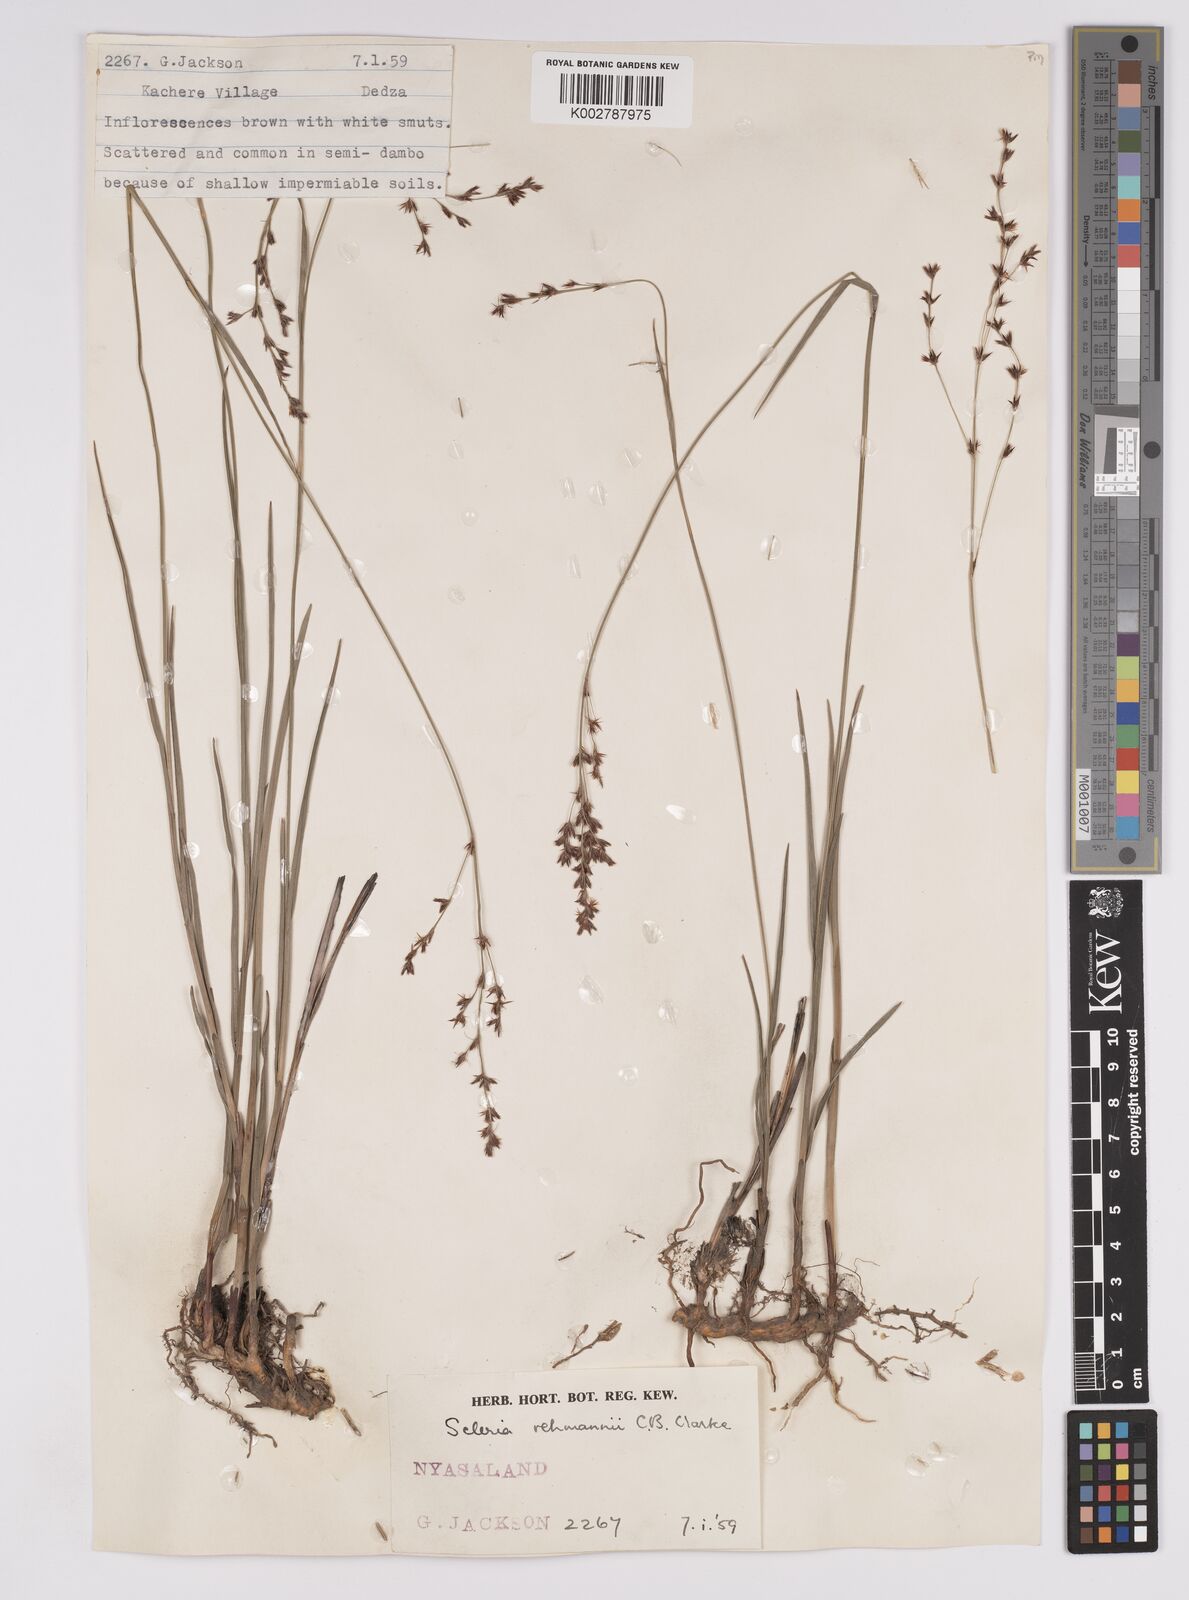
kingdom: Plantae
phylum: Tracheophyta
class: Liliopsida
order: Poales
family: Cyperaceae
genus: Scleria
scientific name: Scleria rehmannii
